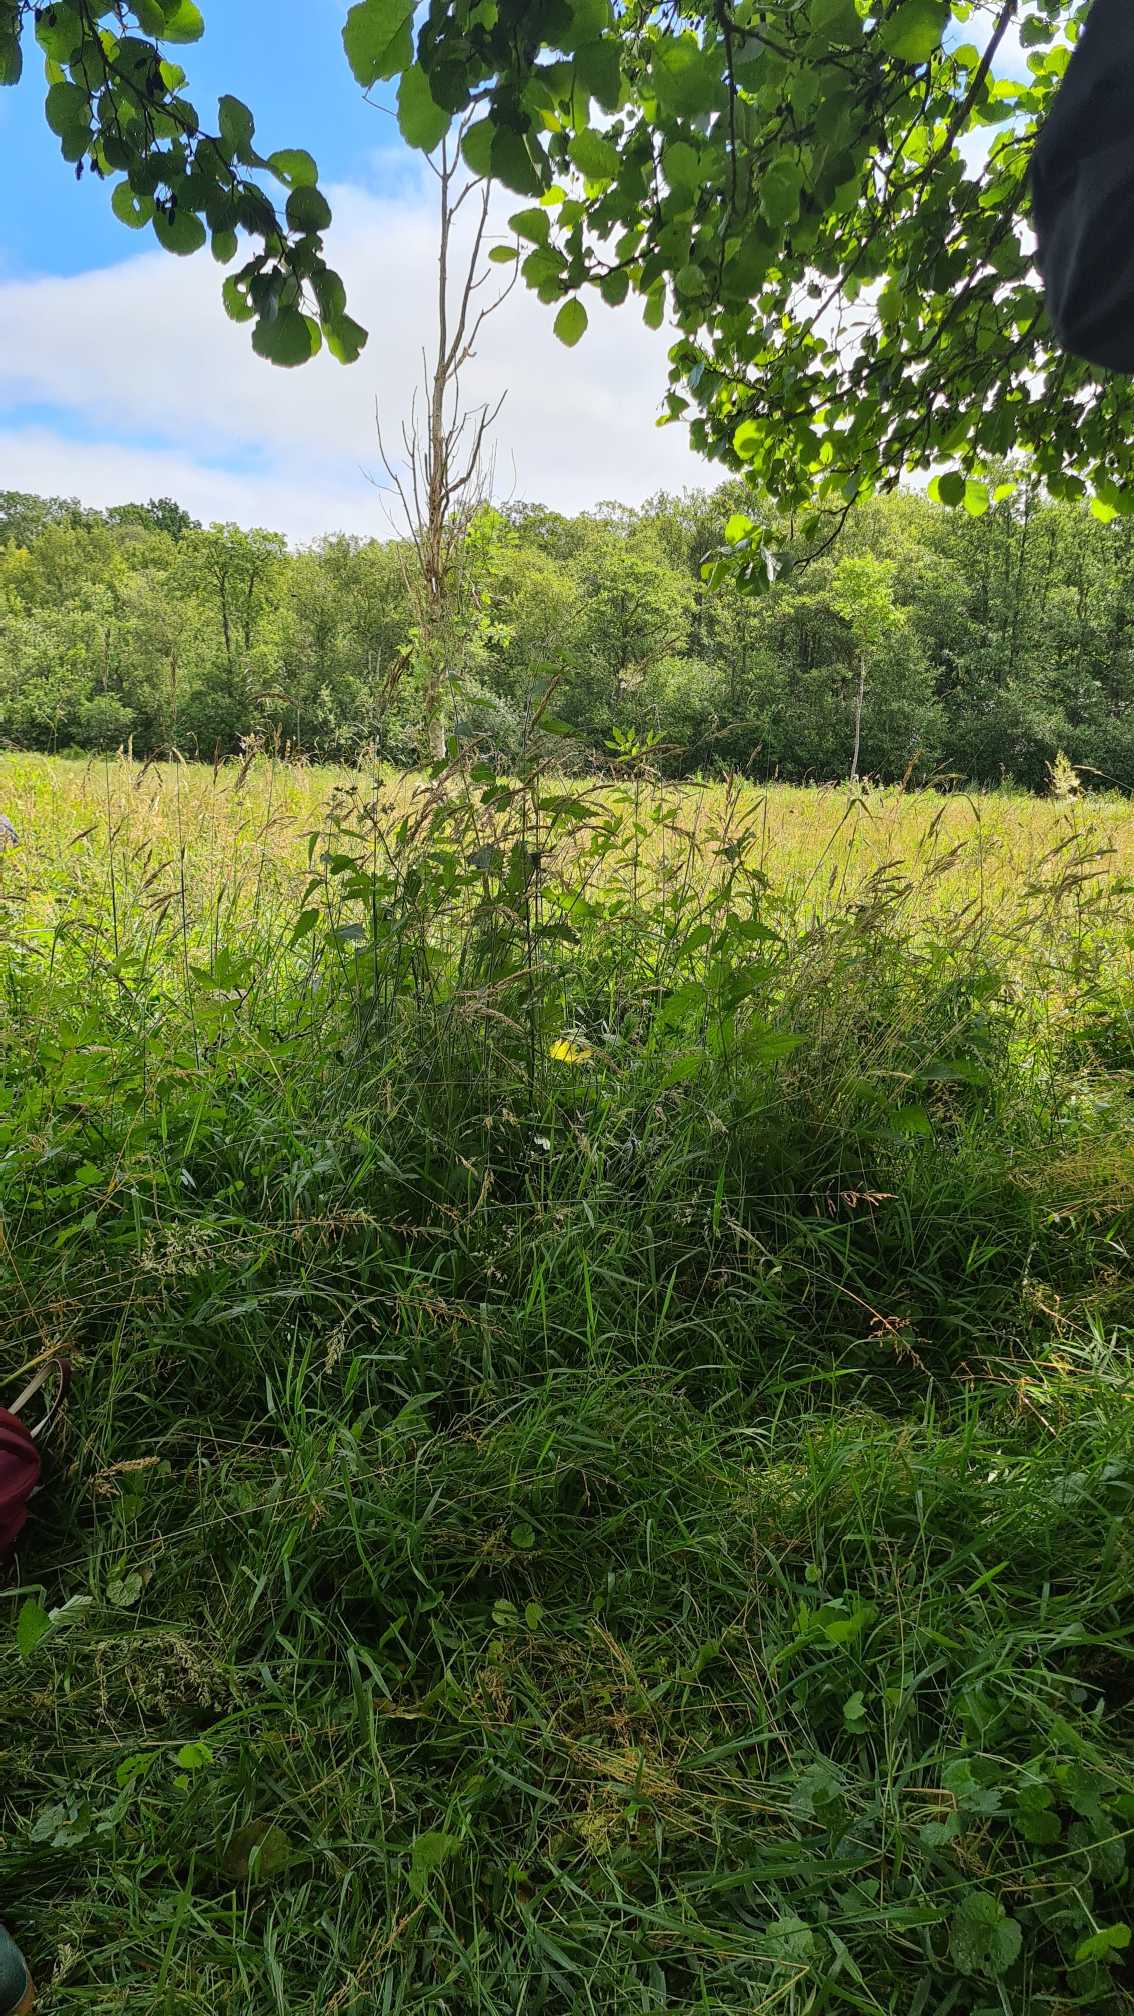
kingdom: Plantae
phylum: Tracheophyta
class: Liliopsida
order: Poales
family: Cyperaceae
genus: Carex
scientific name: Carex divulsa
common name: Mellembrudt star
